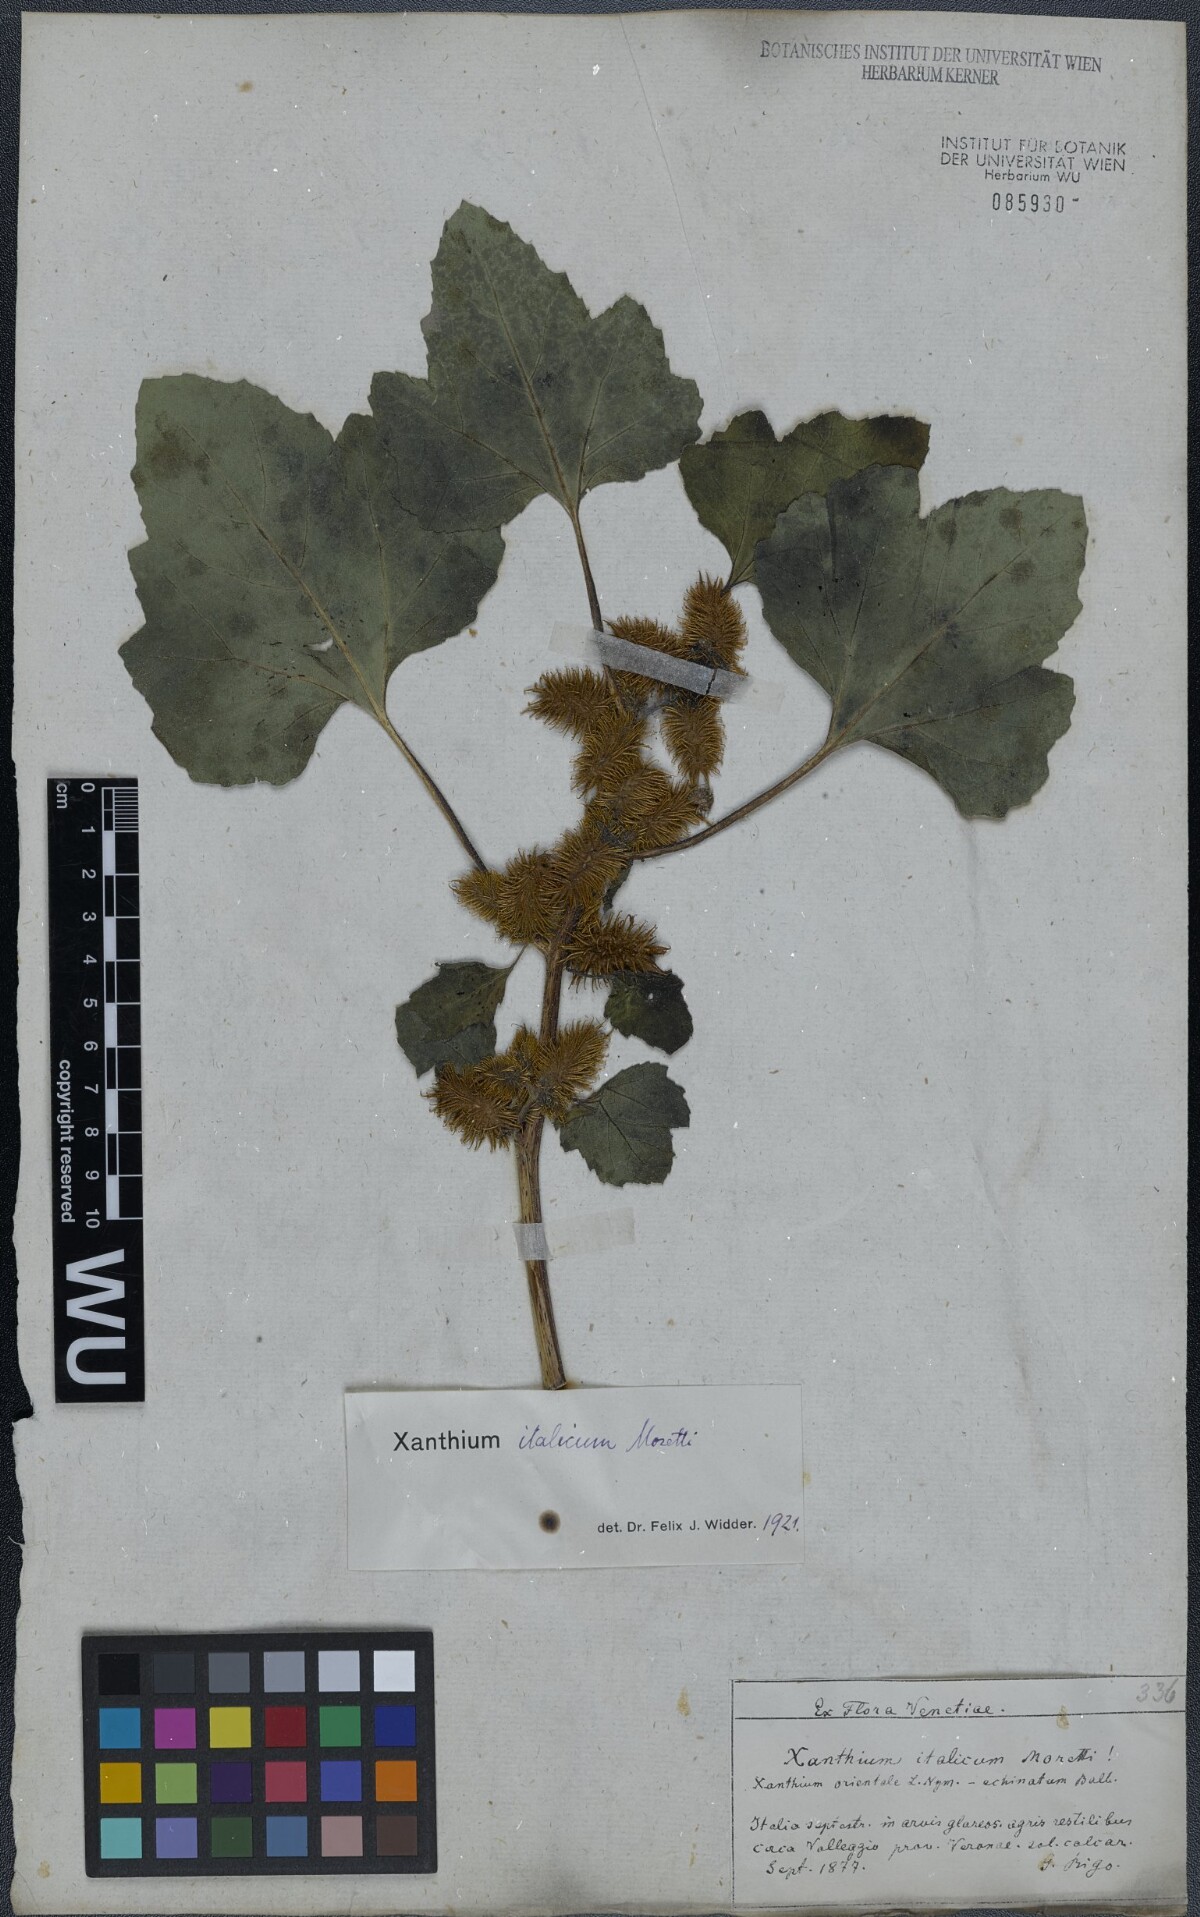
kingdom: Plantae
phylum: Tracheophyta
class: Magnoliopsida
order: Asterales
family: Asteraceae
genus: Xanthium
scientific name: Xanthium orientale
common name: Californian burr
